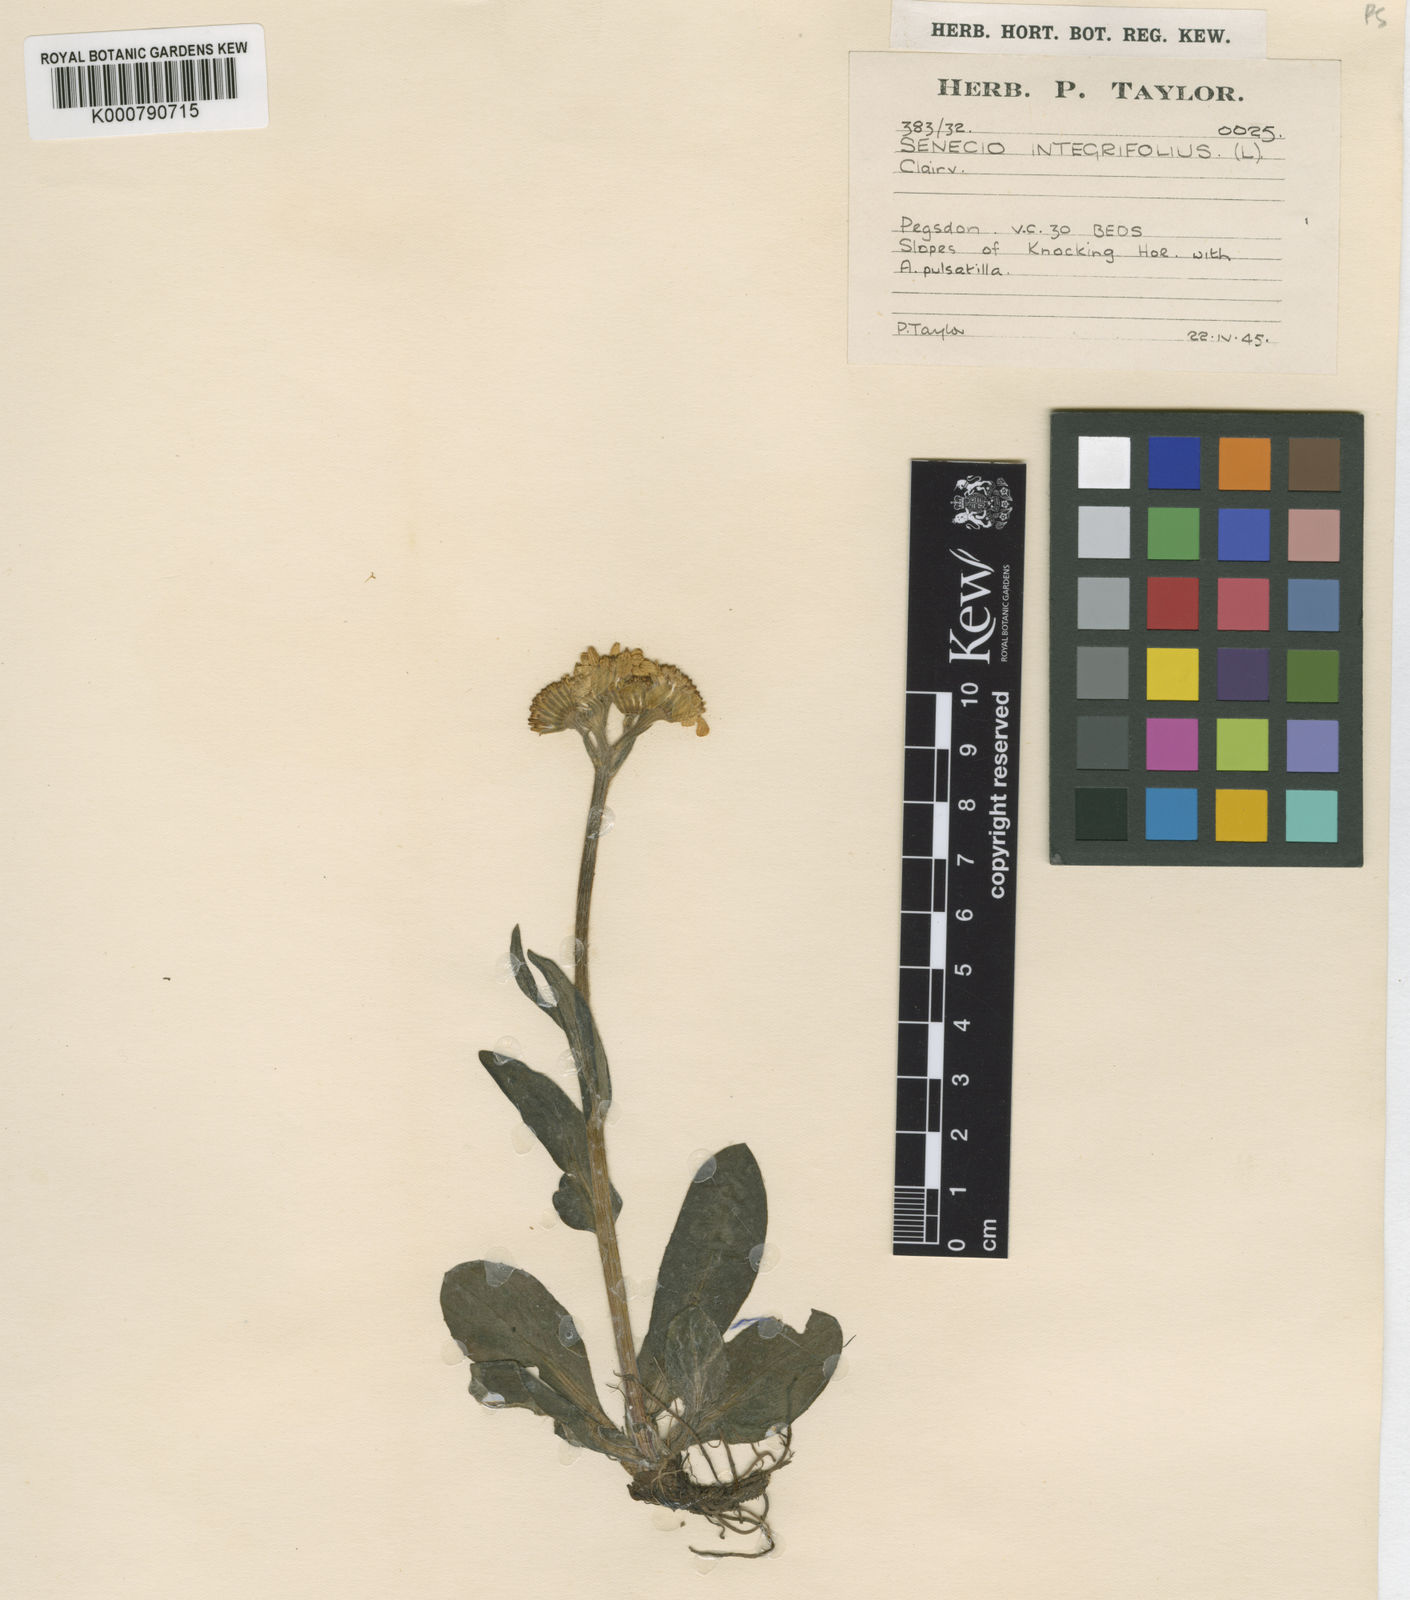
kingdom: Plantae
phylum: Tracheophyta
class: Magnoliopsida
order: Asterales
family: Asteraceae
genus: Tephroseris
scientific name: Tephroseris integrifolia
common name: Field fleawort
